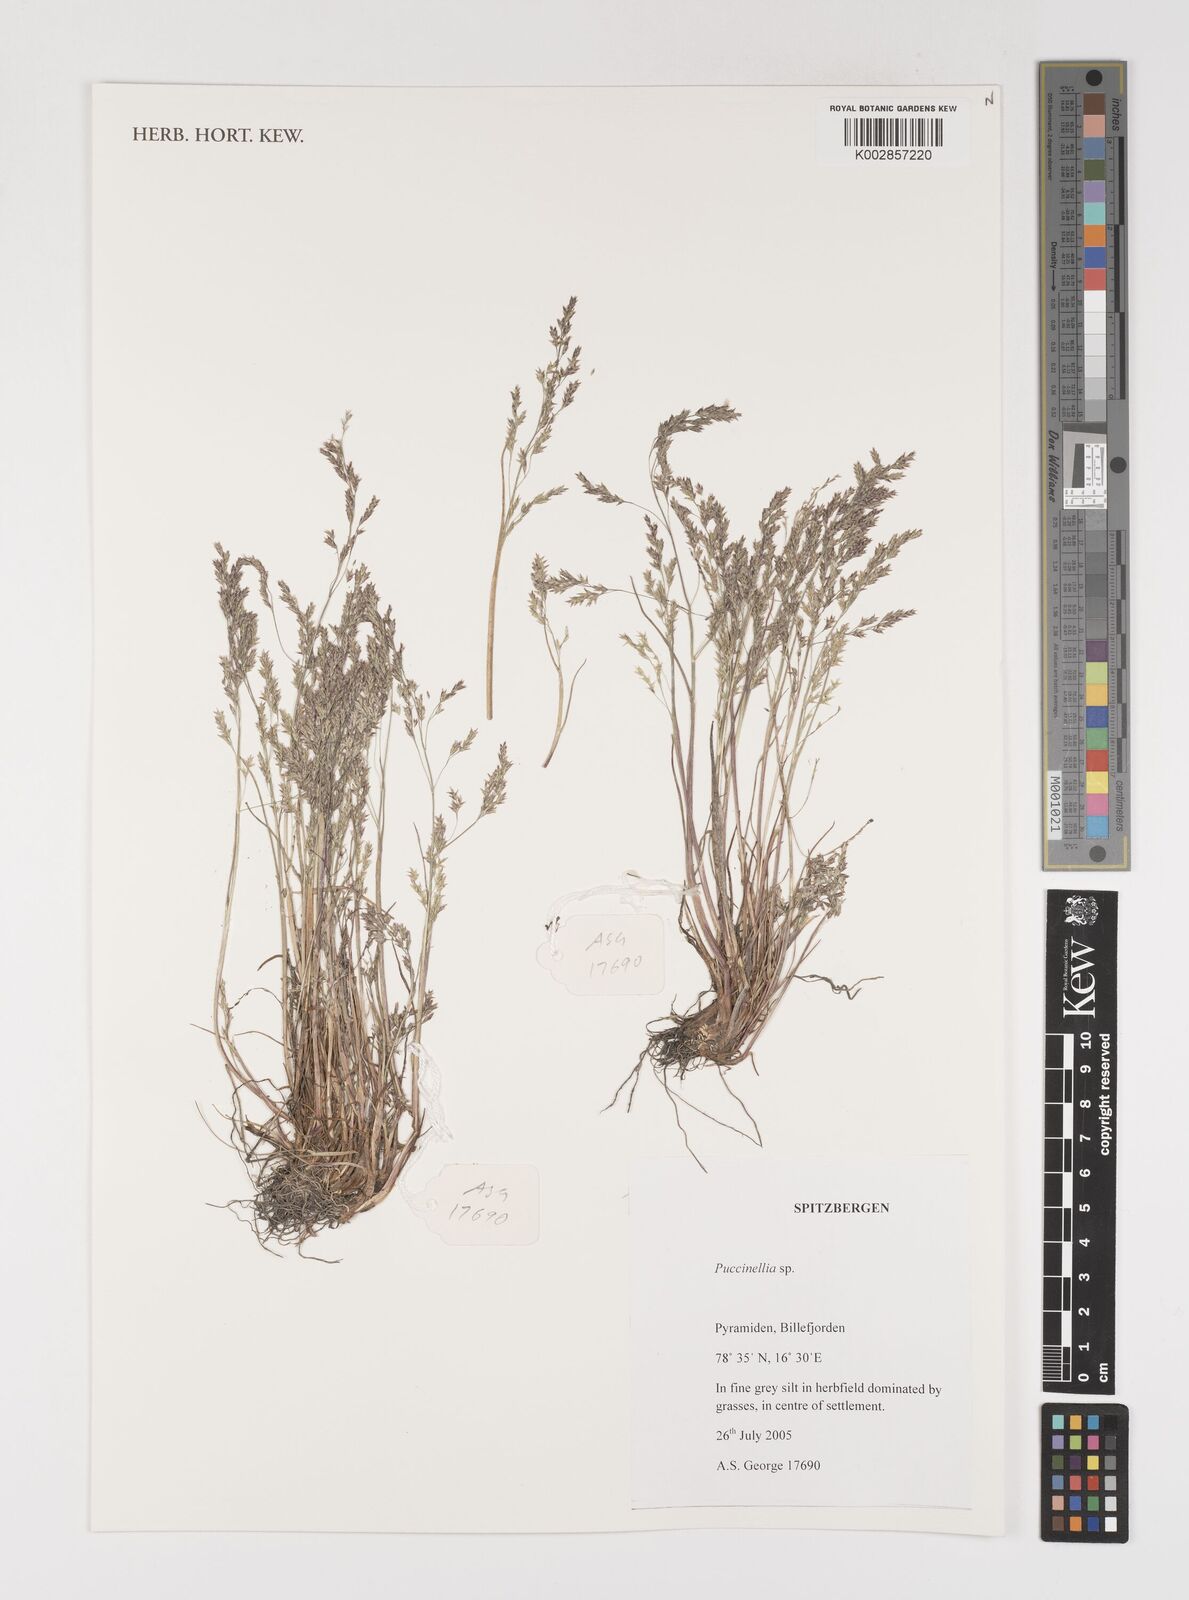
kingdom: Plantae
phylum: Tracheophyta
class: Liliopsida
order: Poales
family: Poaceae
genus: Puccinellia
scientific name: Puccinellia
